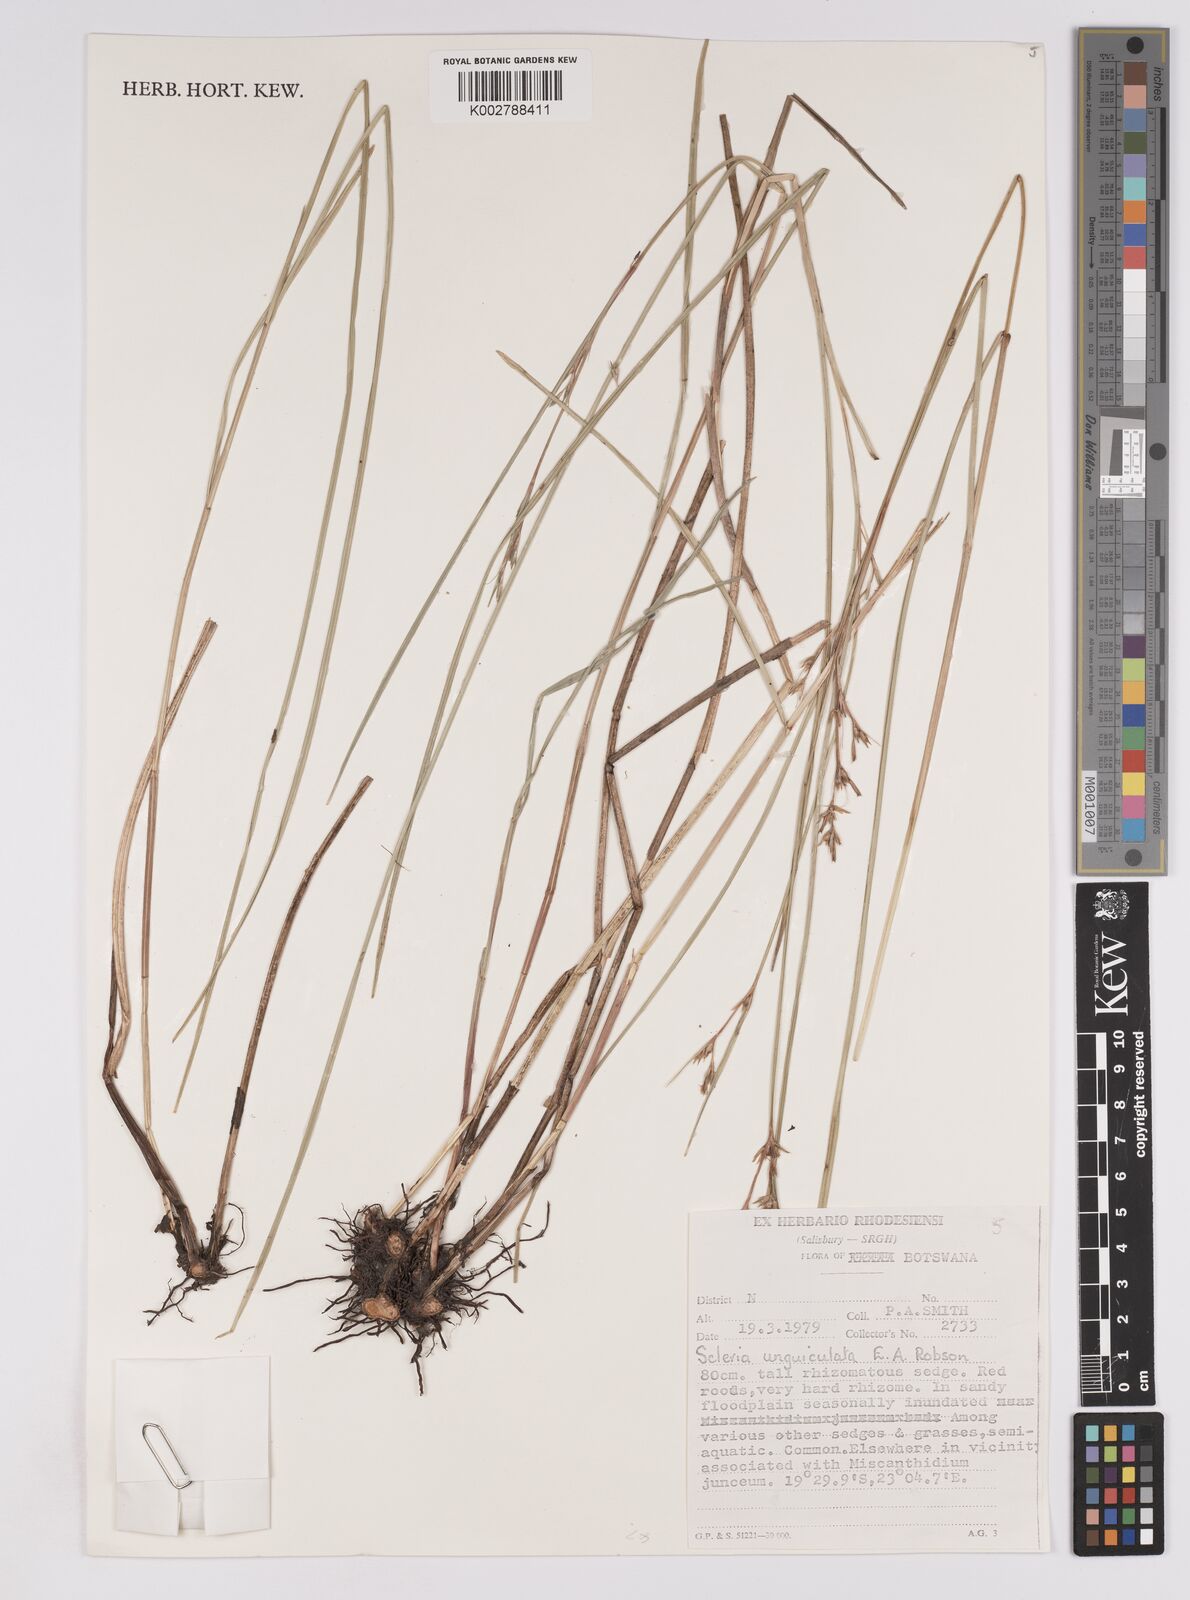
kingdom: Plantae
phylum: Tracheophyta
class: Liliopsida
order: Poales
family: Cyperaceae
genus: Scleria
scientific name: Scleria unguiculata
